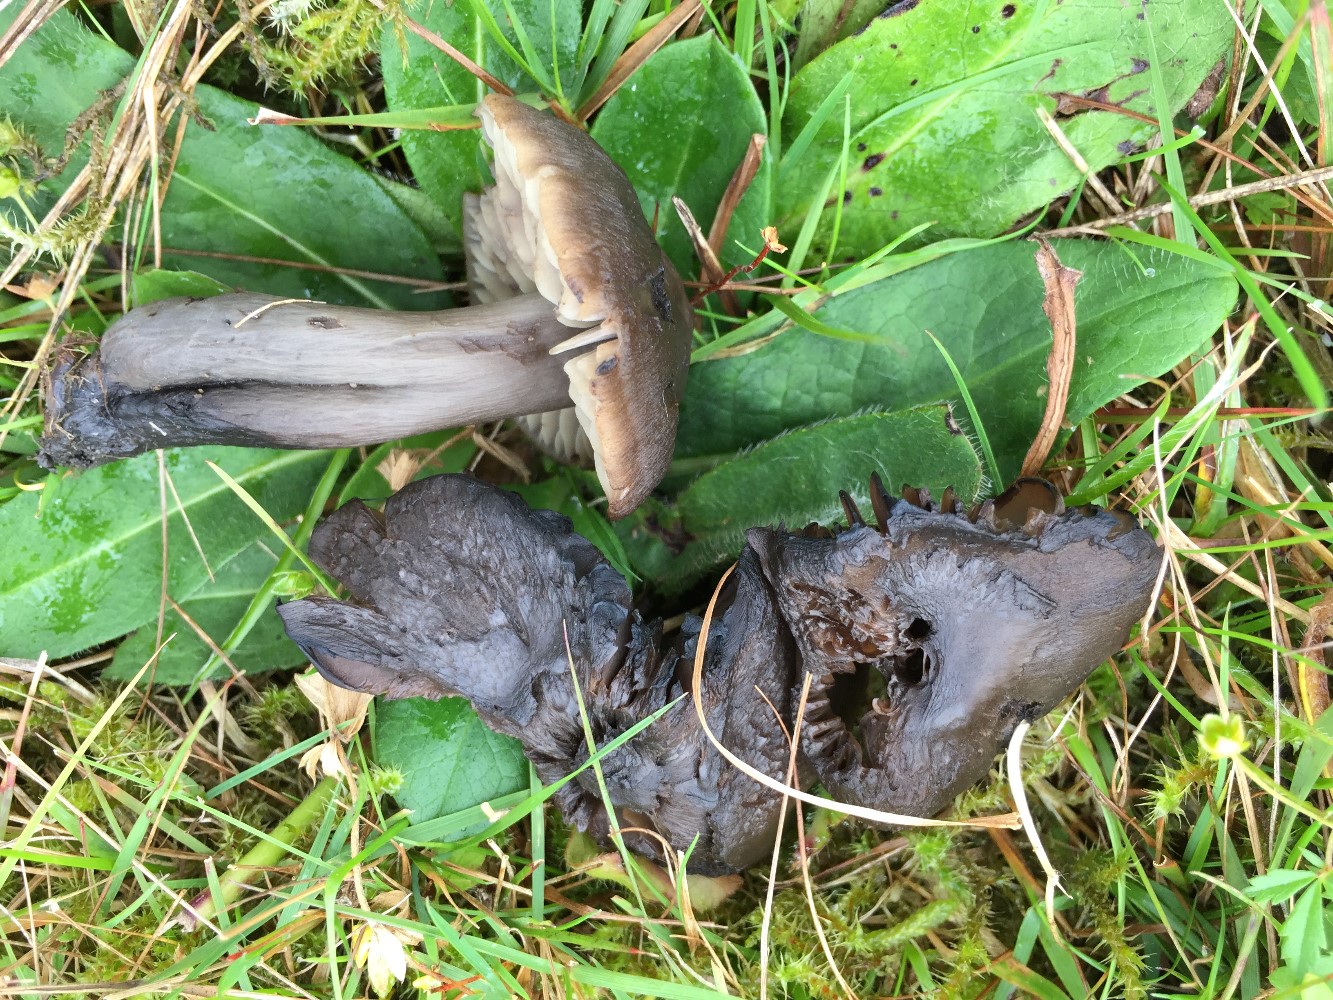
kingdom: Fungi
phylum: Basidiomycota
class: Agaricomycetes
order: Agaricales
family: Hygrophoraceae
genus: Neohygrocybe
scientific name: Neohygrocybe ovina
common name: rødmende vokshat
